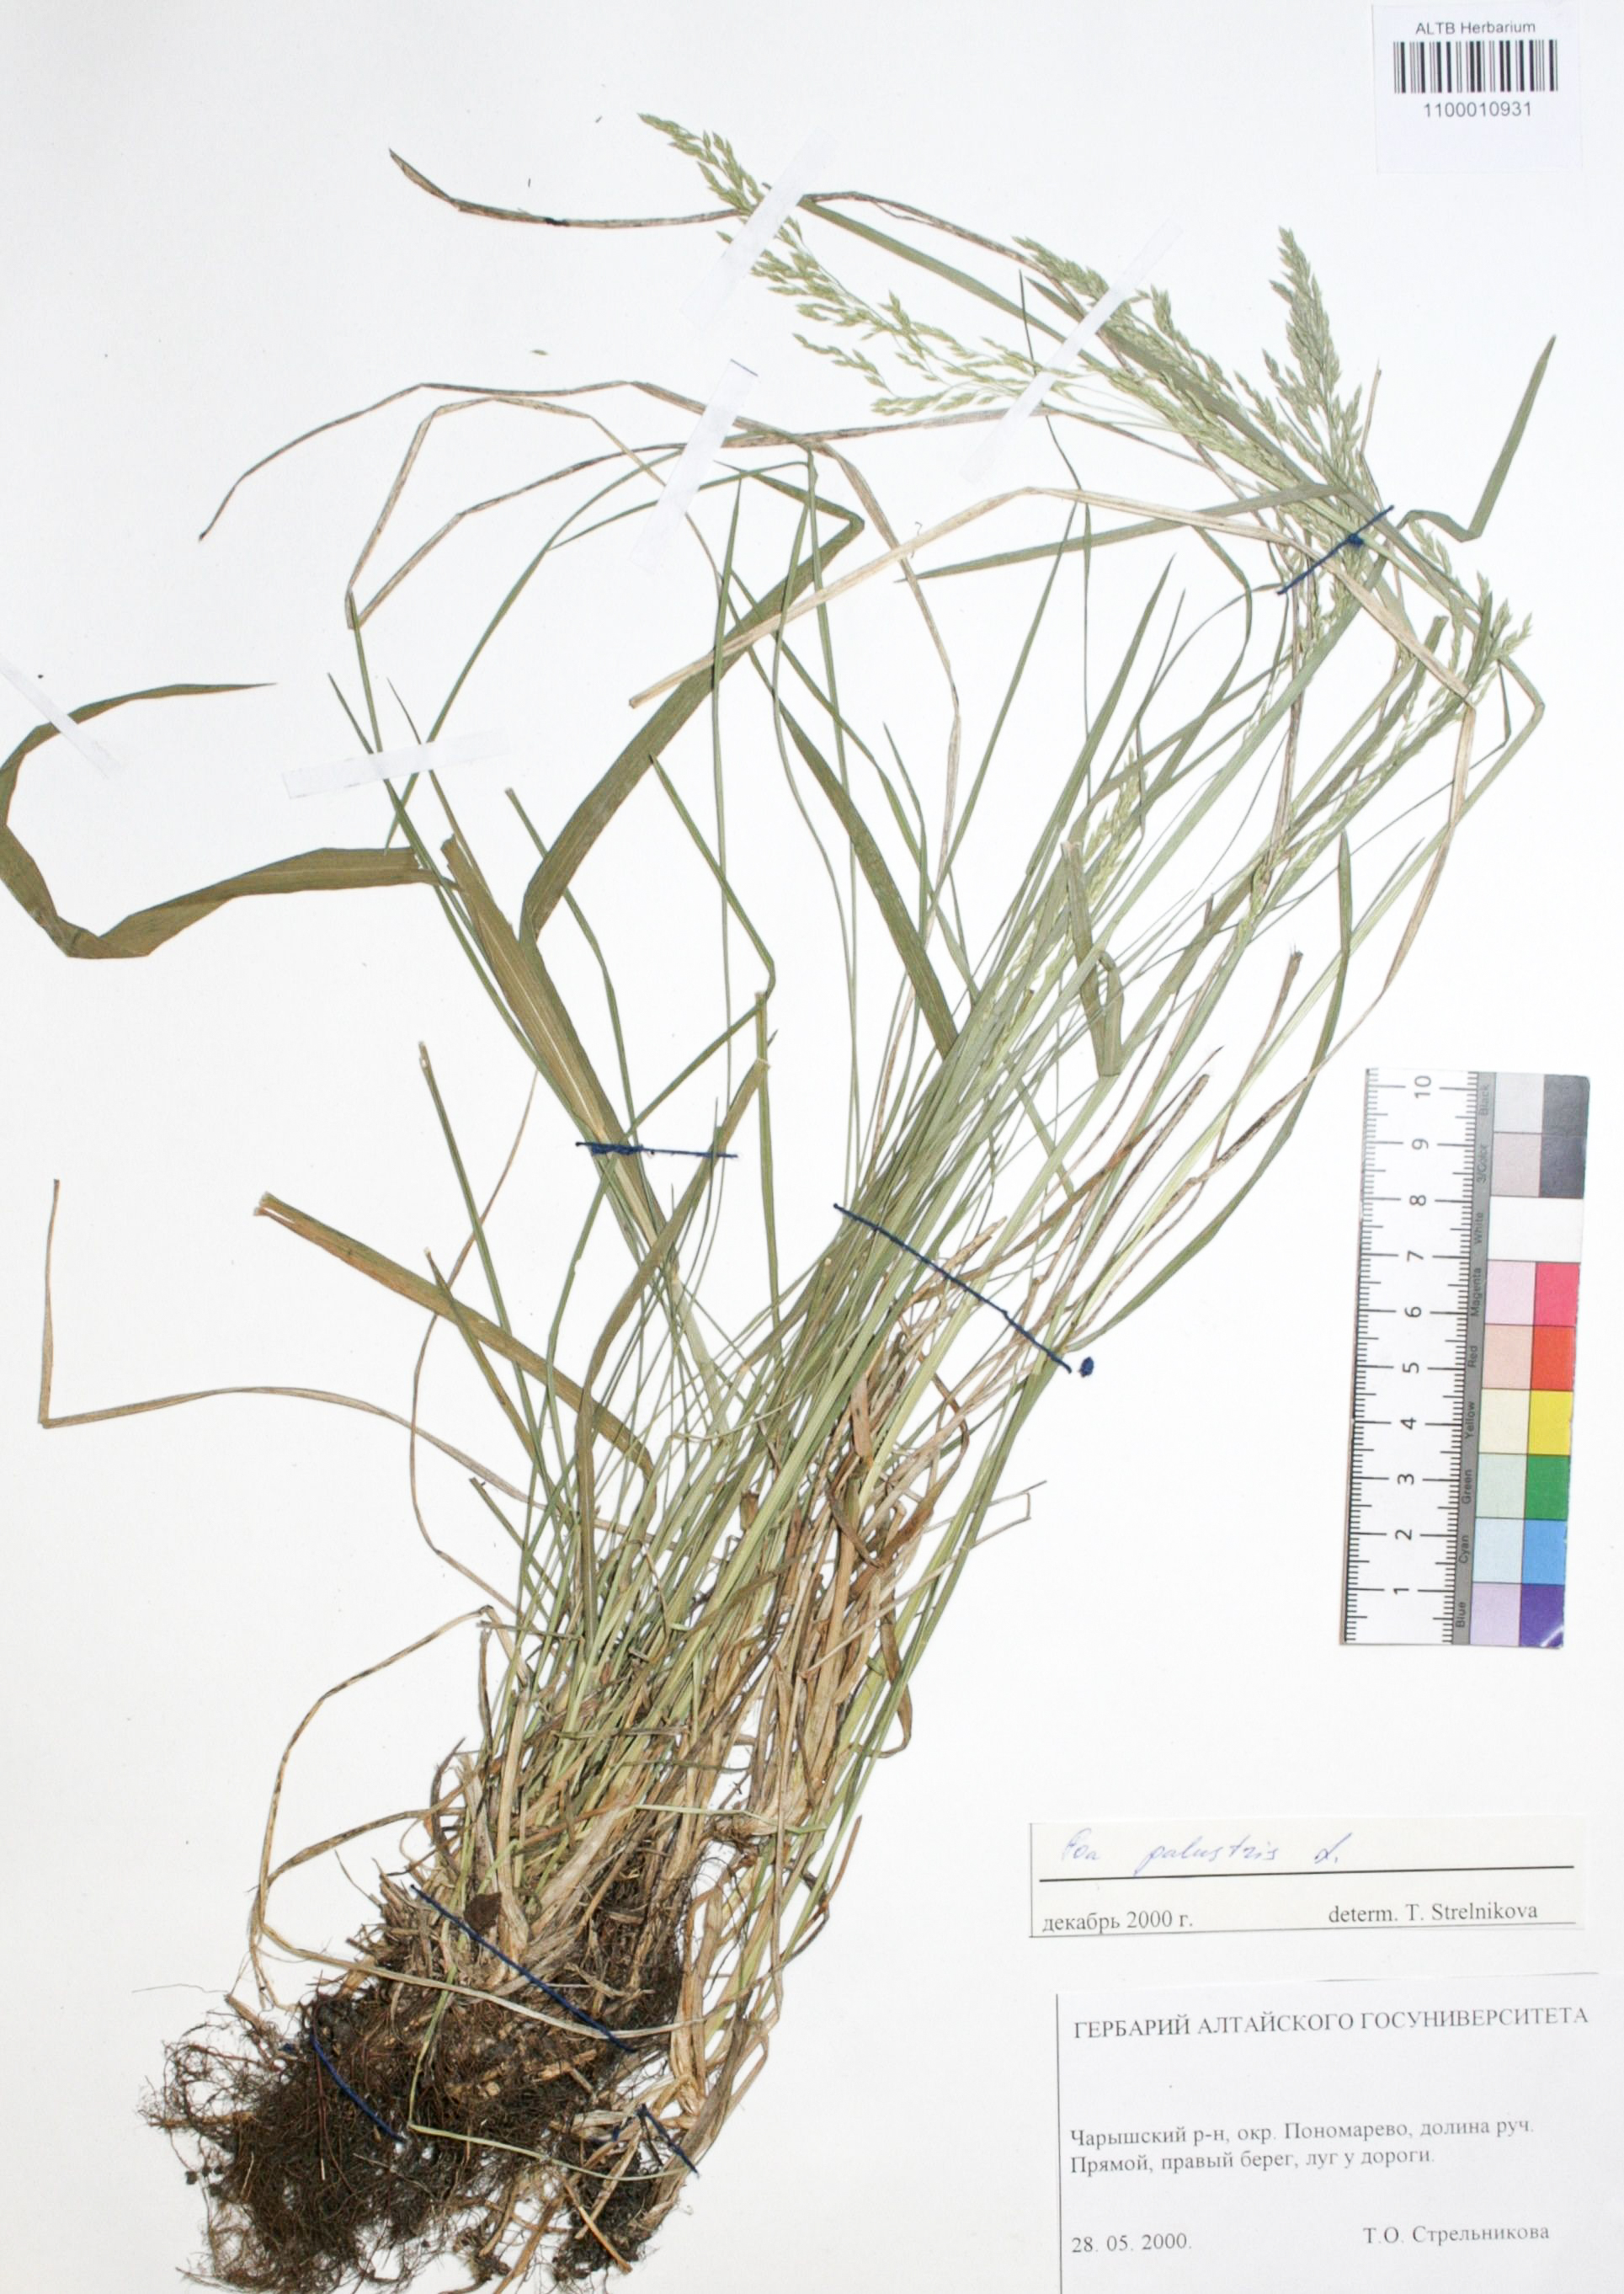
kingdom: Plantae
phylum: Tracheophyta
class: Liliopsida
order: Poales
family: Poaceae
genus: Poa
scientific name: Poa palustris
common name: Swamp meadow-grass
